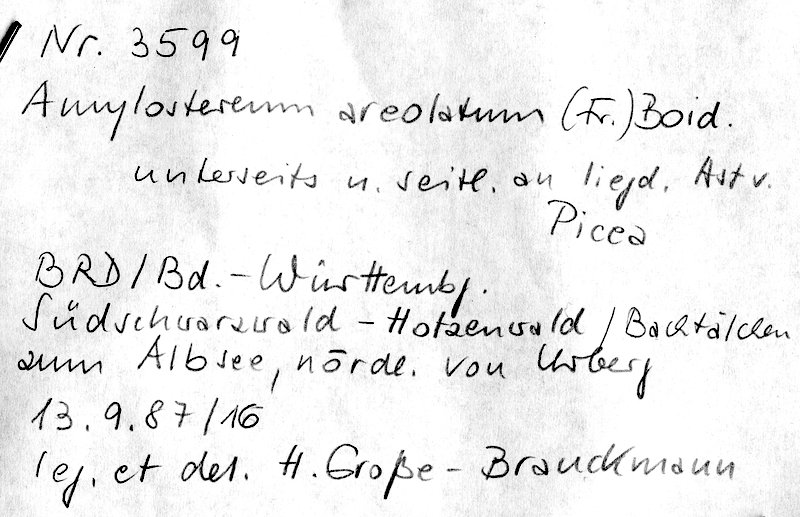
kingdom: Fungi
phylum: Basidiomycota
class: Agaricomycetes
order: Russulales
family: Echinodontiaceae
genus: Amylostereum
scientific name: Amylostereum areolatum
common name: White rot fungus
